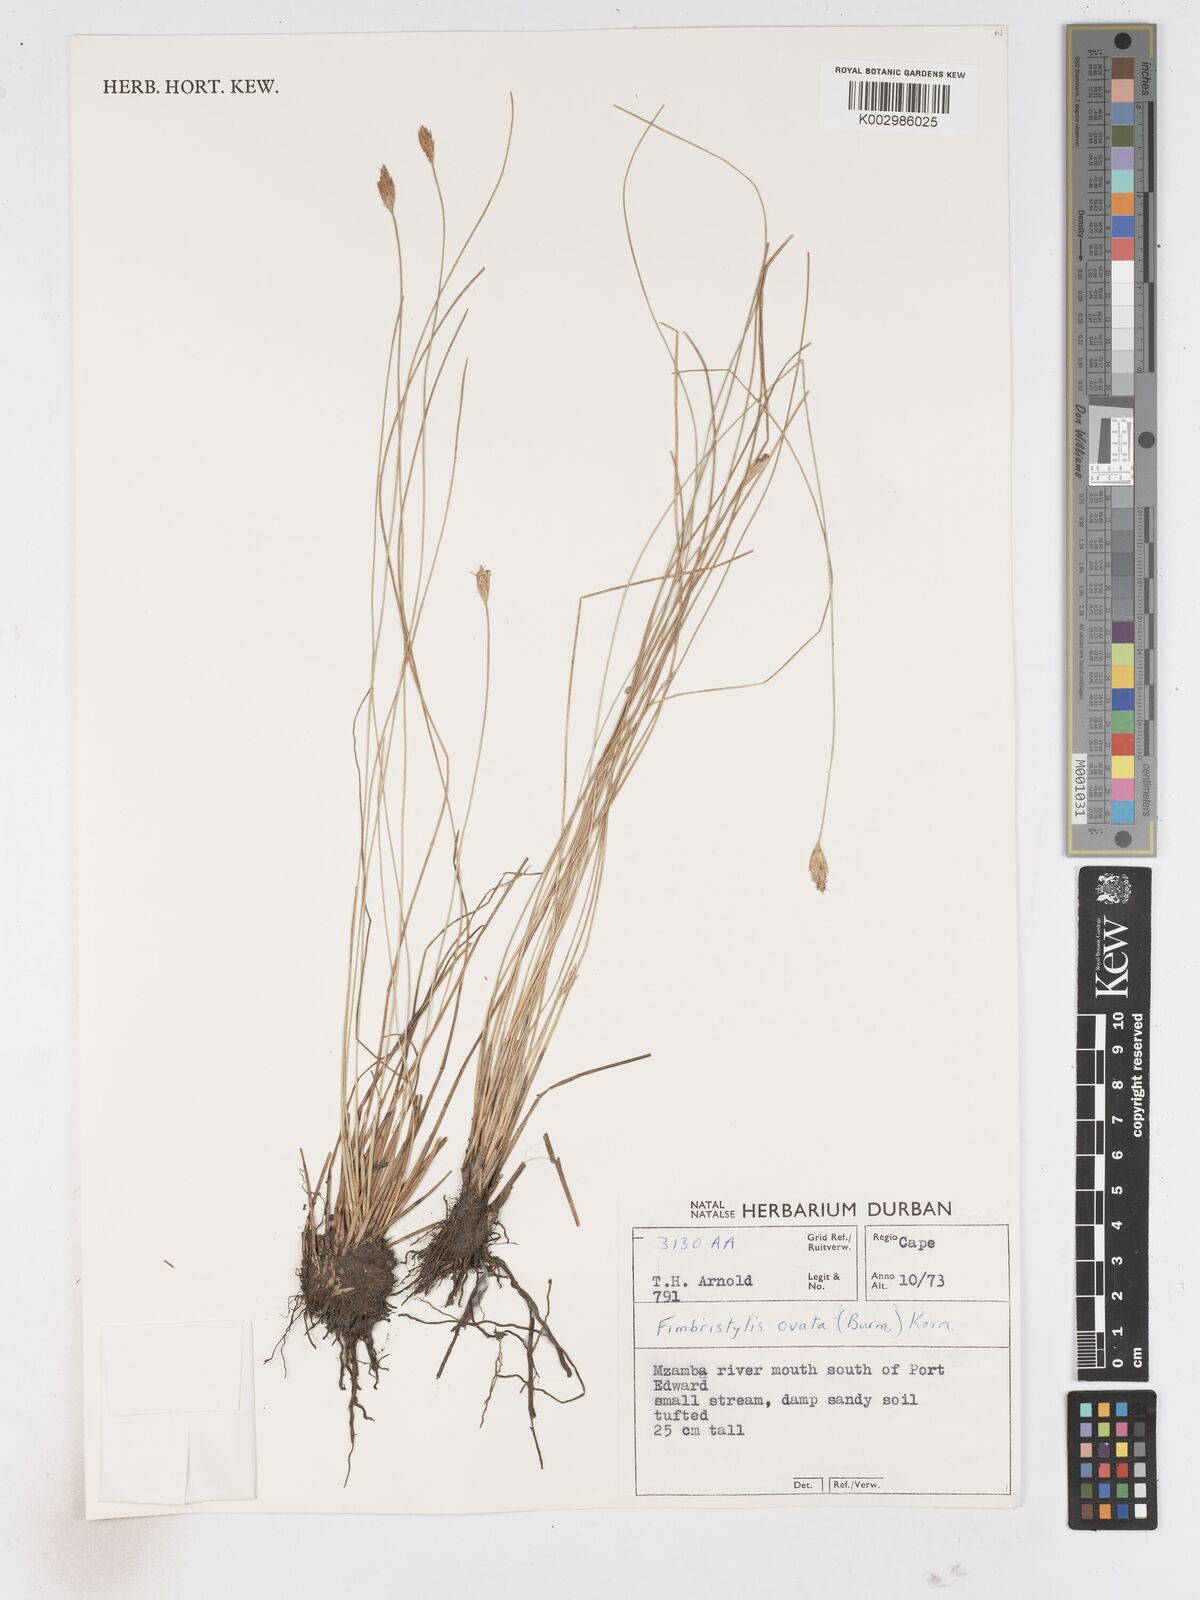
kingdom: Plantae
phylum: Tracheophyta
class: Liliopsida
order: Poales
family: Cyperaceae
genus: Abildgaardia
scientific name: Abildgaardia ovata
